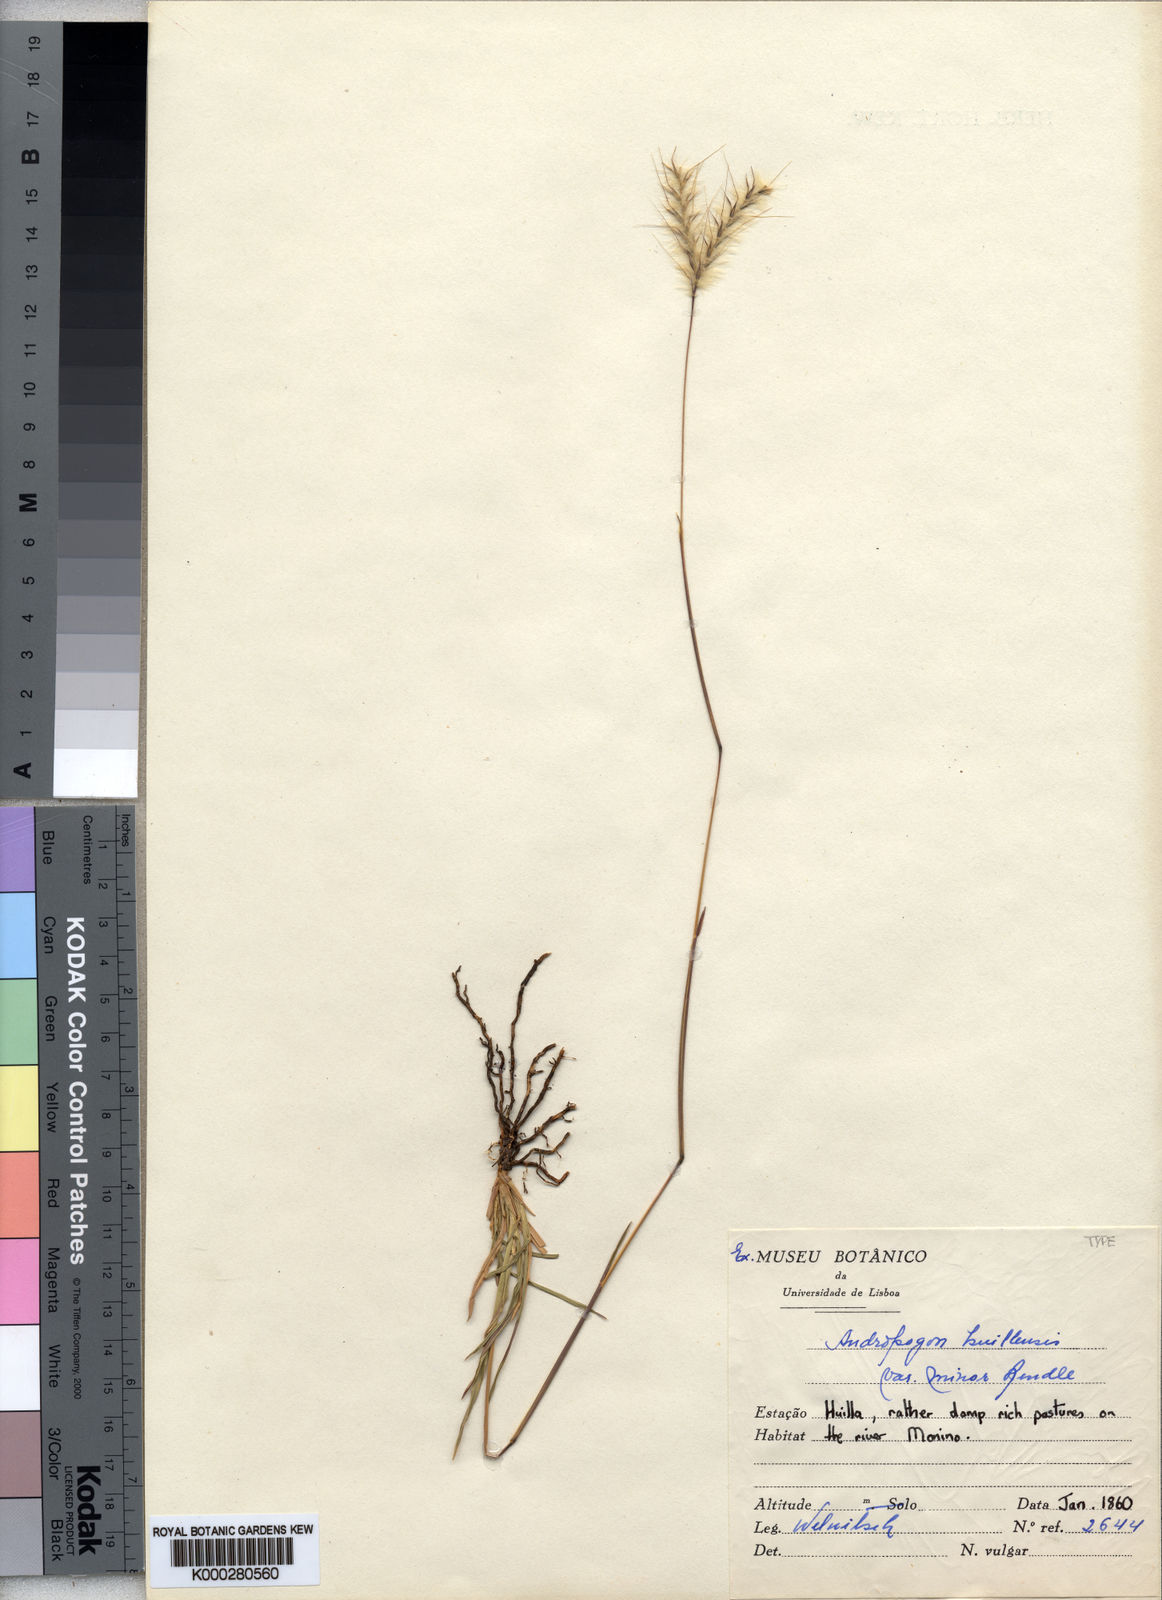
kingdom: Plantae
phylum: Tracheophyta
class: Liliopsida
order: Poales
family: Poaceae
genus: Andropogon
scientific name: Andropogon eucomus
